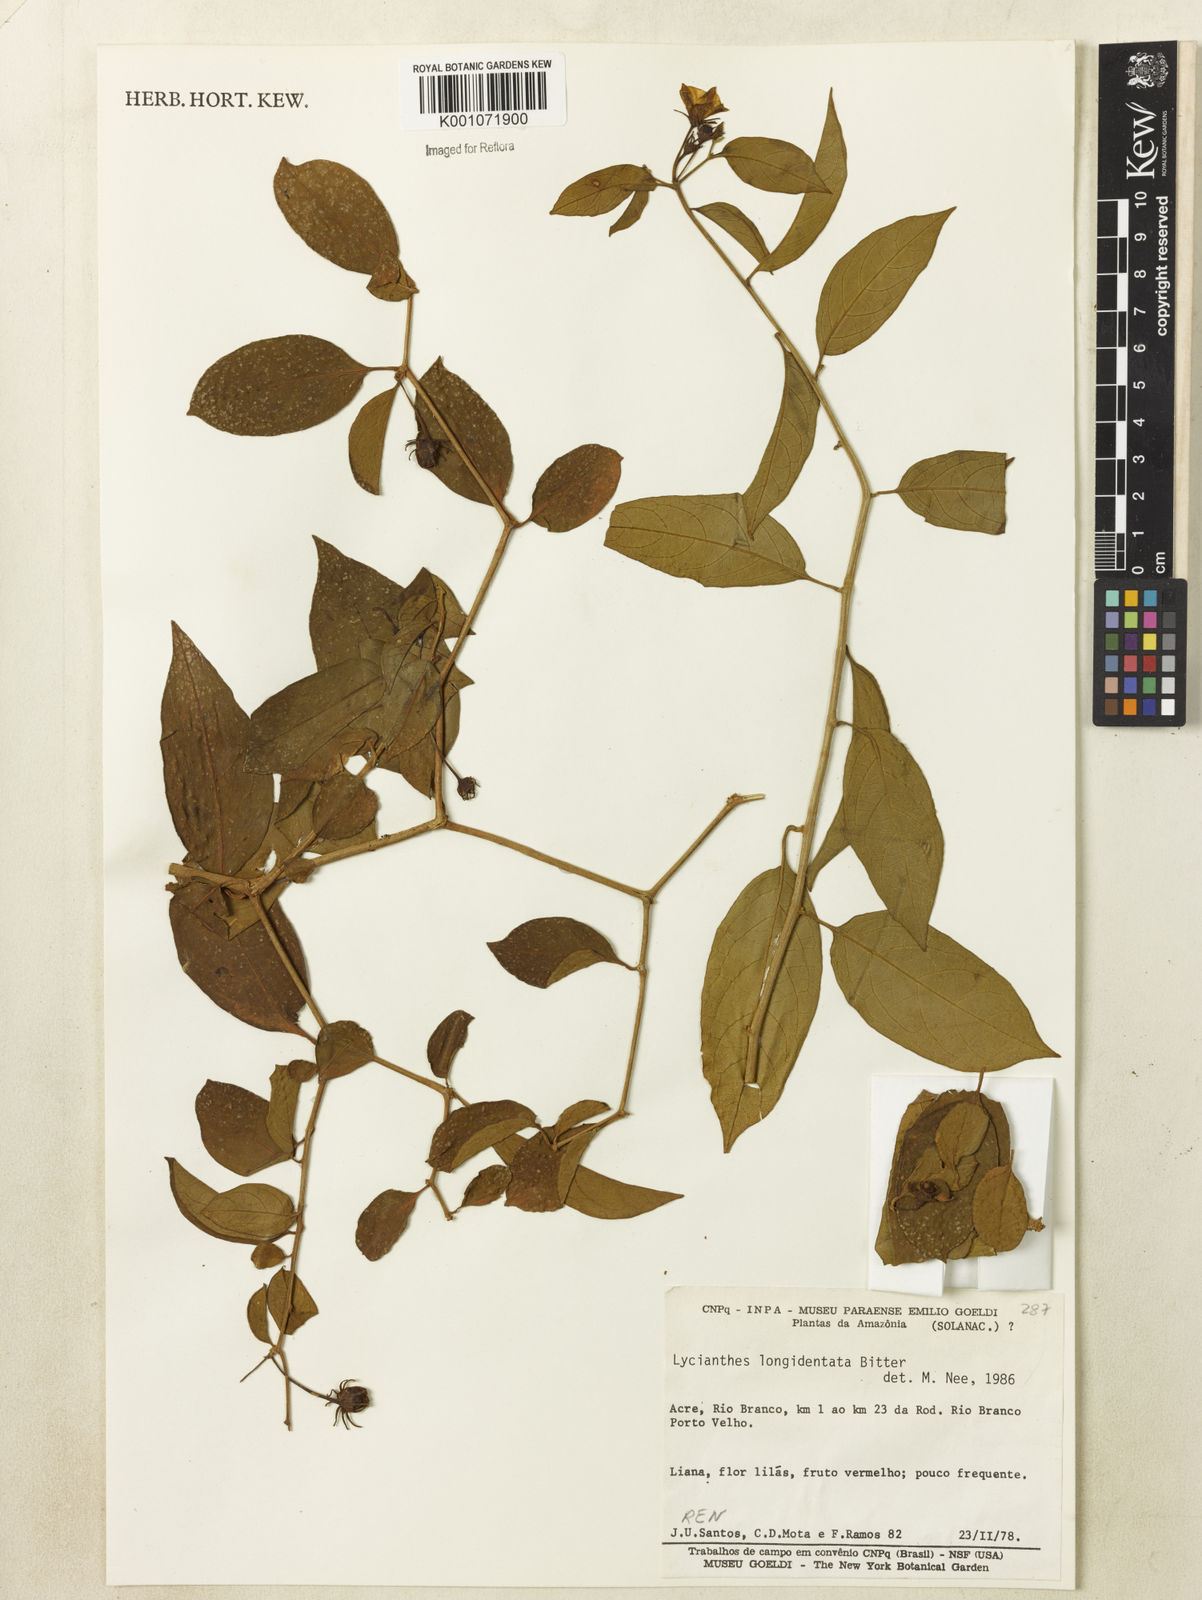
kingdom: Plantae
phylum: Tracheophyta
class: Magnoliopsida
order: Solanales
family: Solanaceae
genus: Lycianthes
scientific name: Lycianthes
